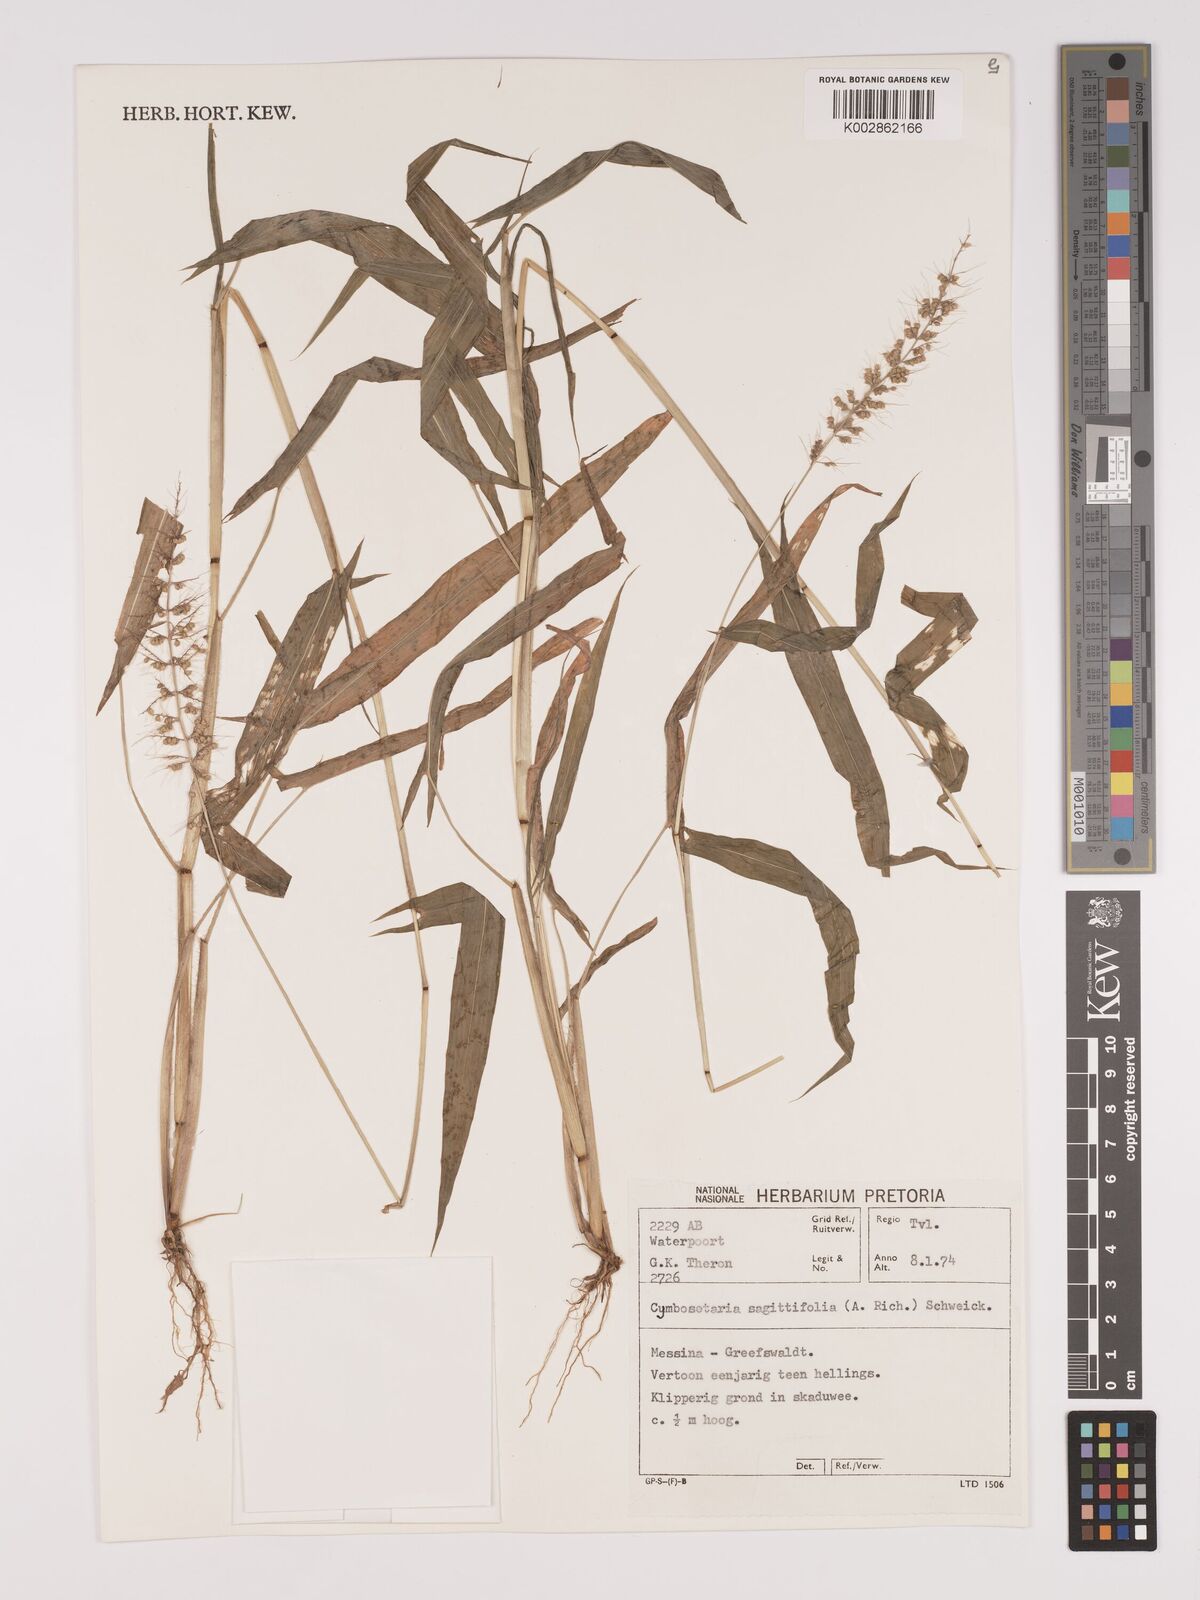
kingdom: Plantae
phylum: Tracheophyta
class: Liliopsida
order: Poales
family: Poaceae
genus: Setaria
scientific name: Setaria sagittifolia
